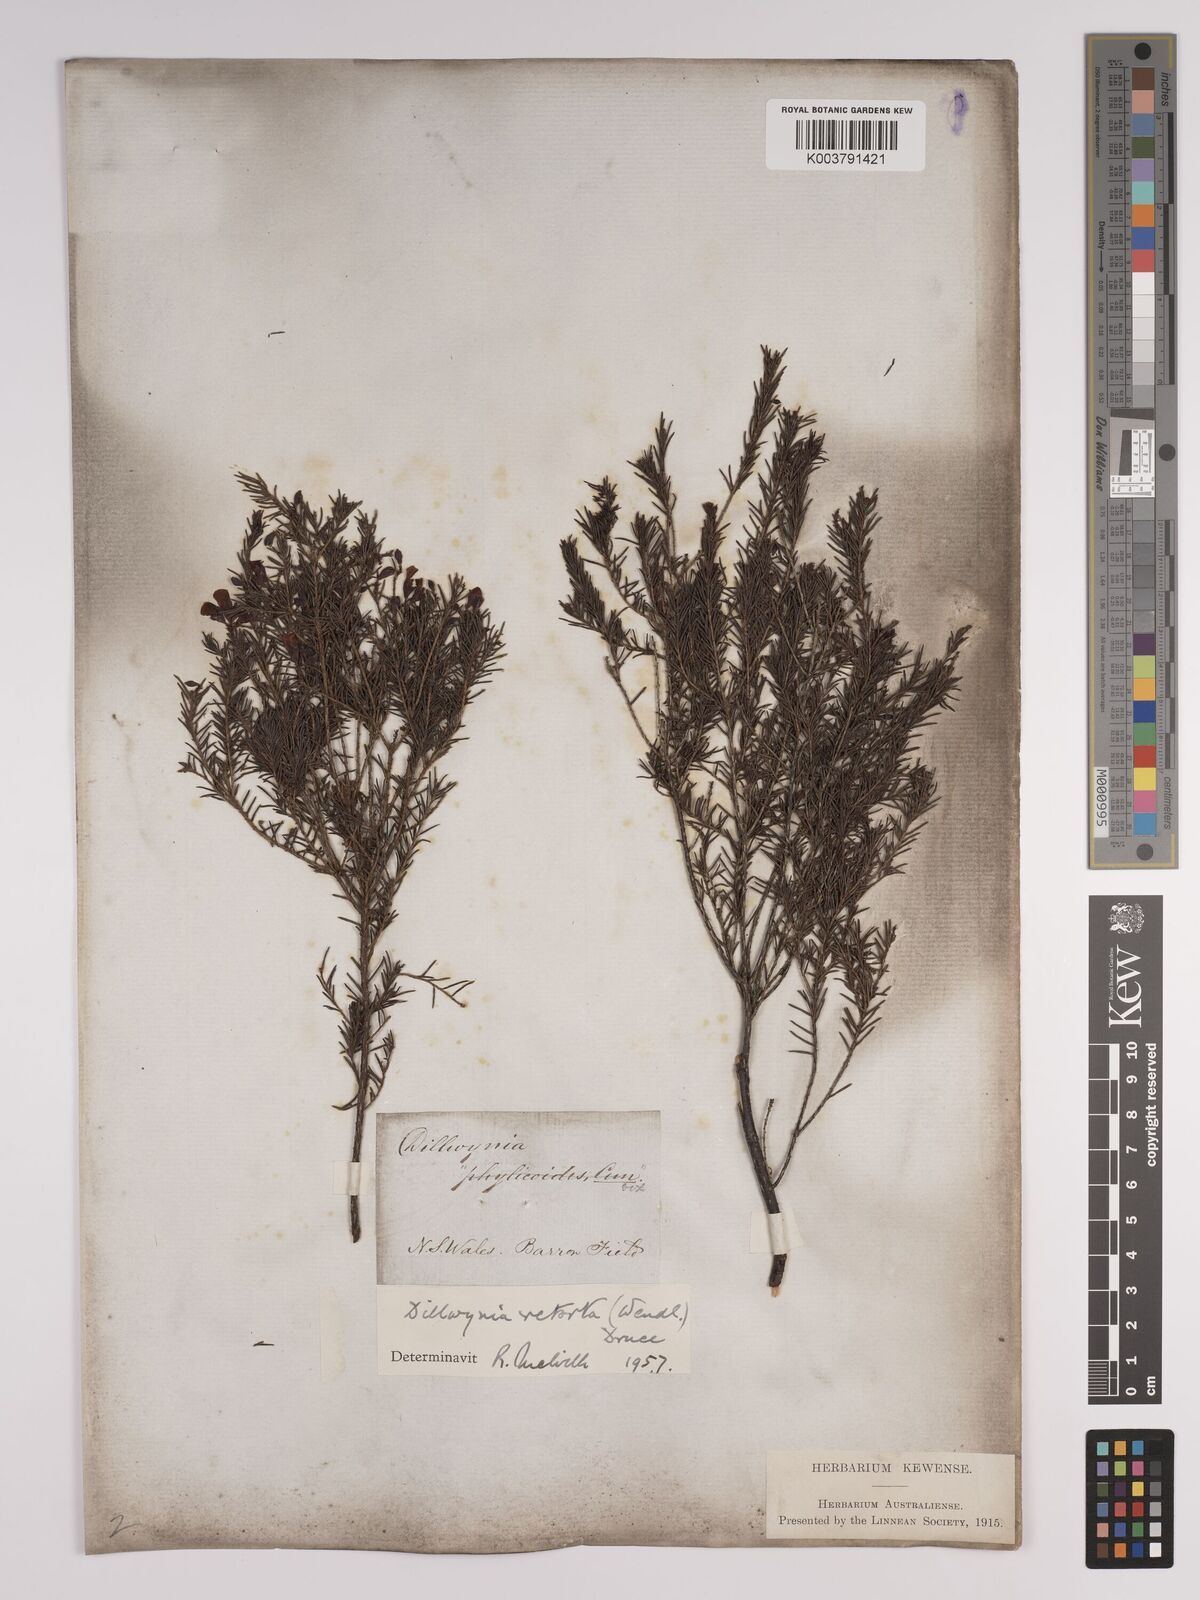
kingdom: Plantae
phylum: Tracheophyta
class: Magnoliopsida
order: Fabales
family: Fabaceae
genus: Dillwynia
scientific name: Dillwynia retorta
